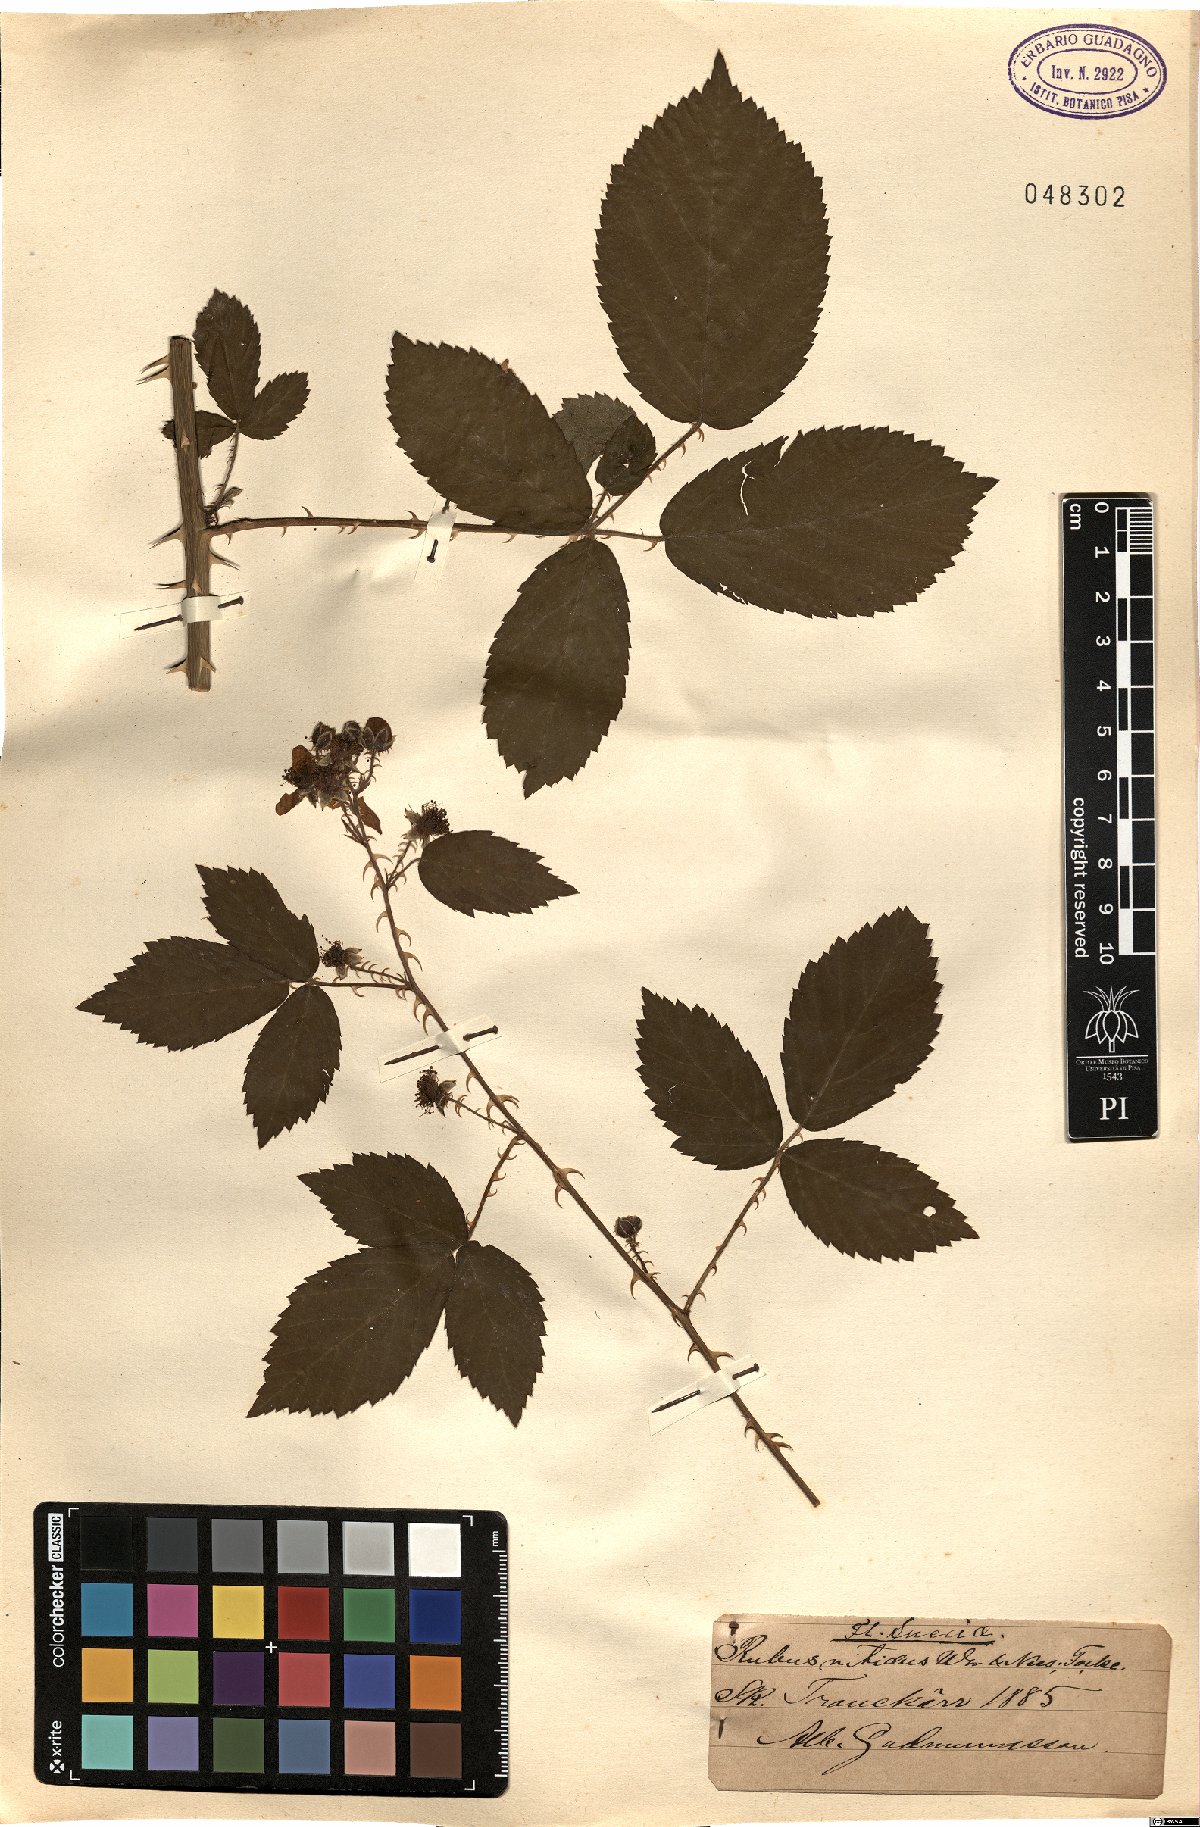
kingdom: Plantae
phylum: Tracheophyta
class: Magnoliopsida
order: Rosales
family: Rosaceae
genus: Rubus
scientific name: Rubus
